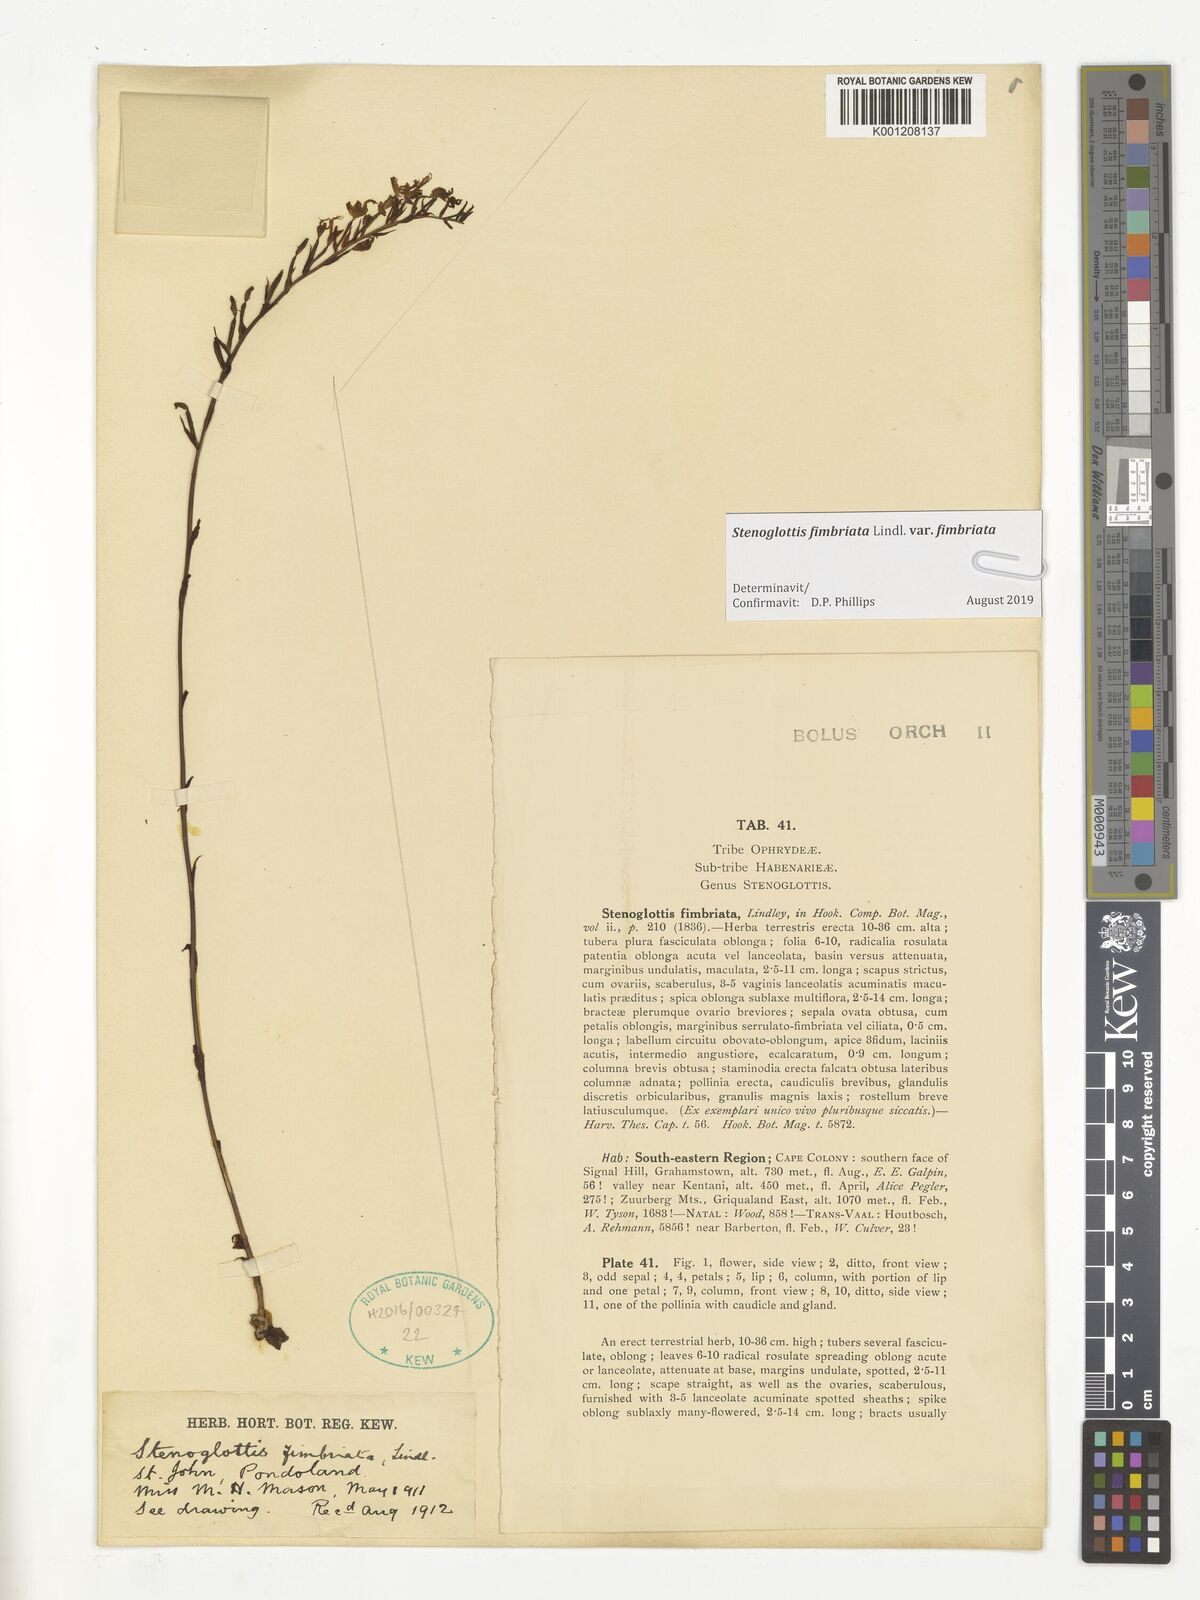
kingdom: Plantae
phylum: Tracheophyta
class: Liliopsida
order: Asparagales
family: Orchidaceae
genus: Stenoglottis
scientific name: Stenoglottis fimbriata
